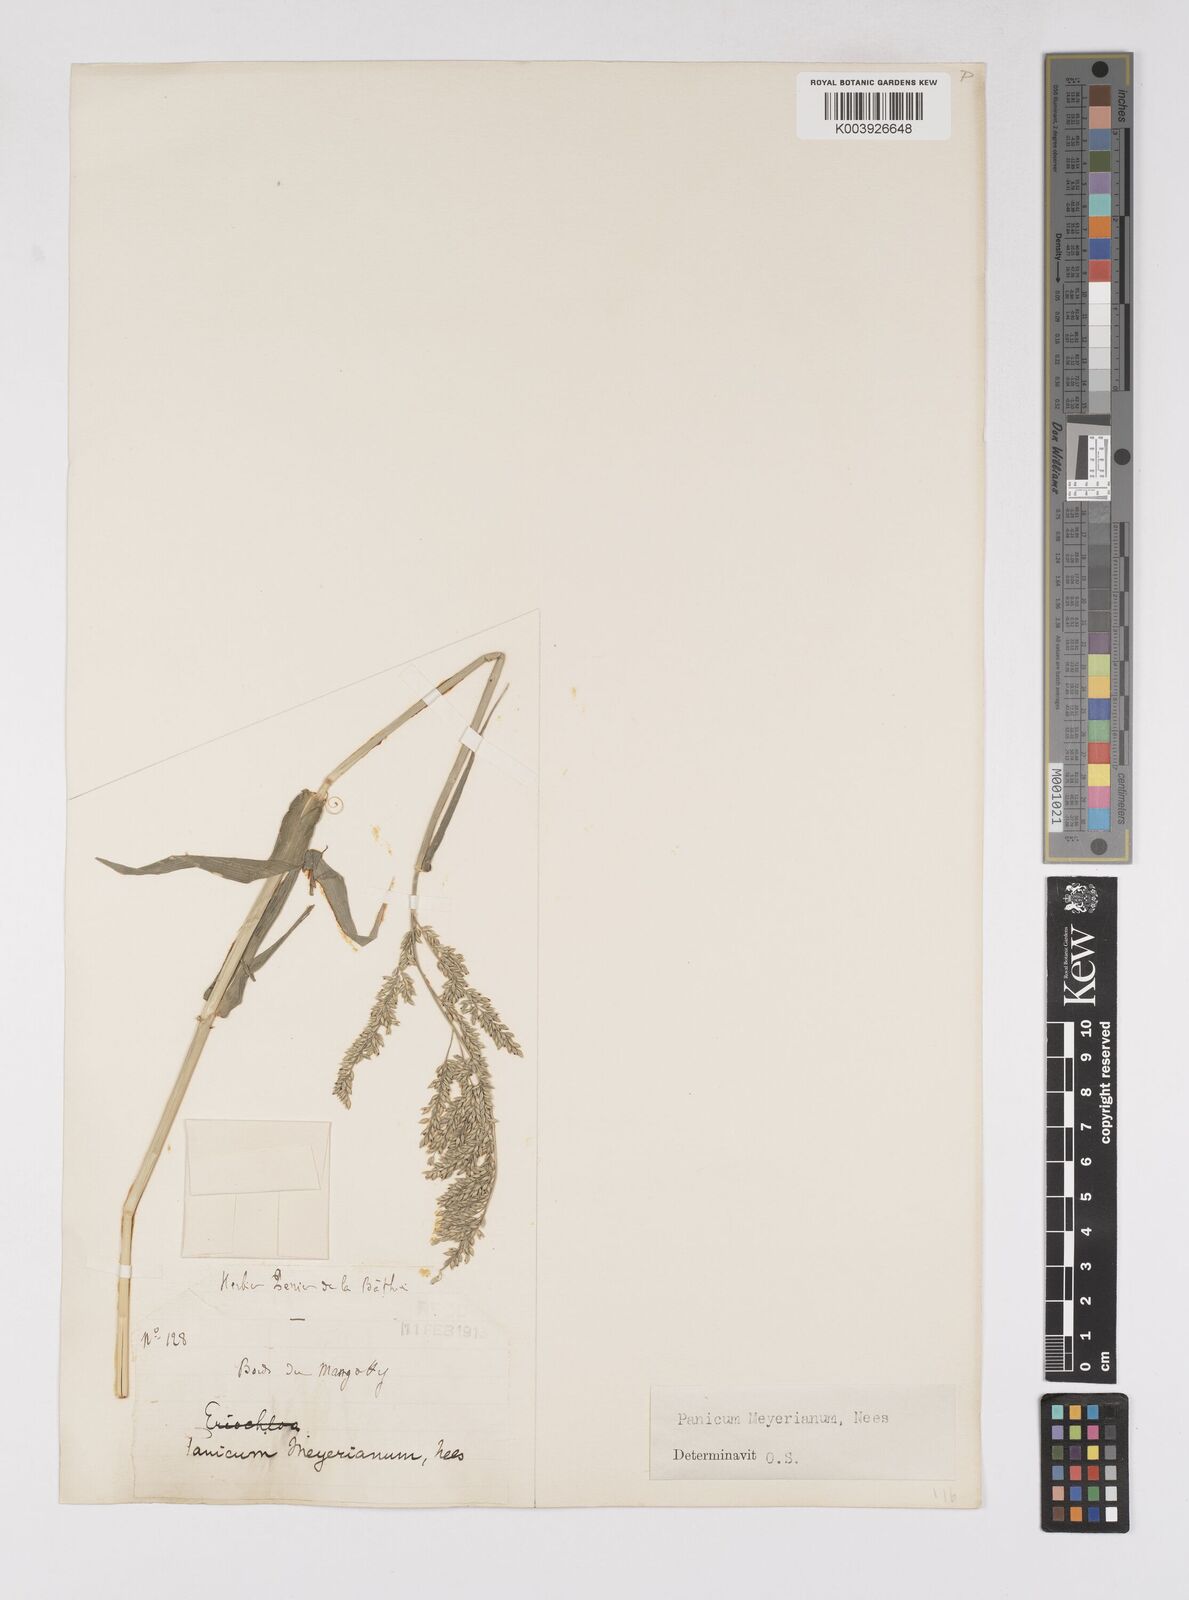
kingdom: Plantae
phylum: Tracheophyta
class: Liliopsida
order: Poales
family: Poaceae
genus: Eriochloa
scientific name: Eriochloa meyeriana
